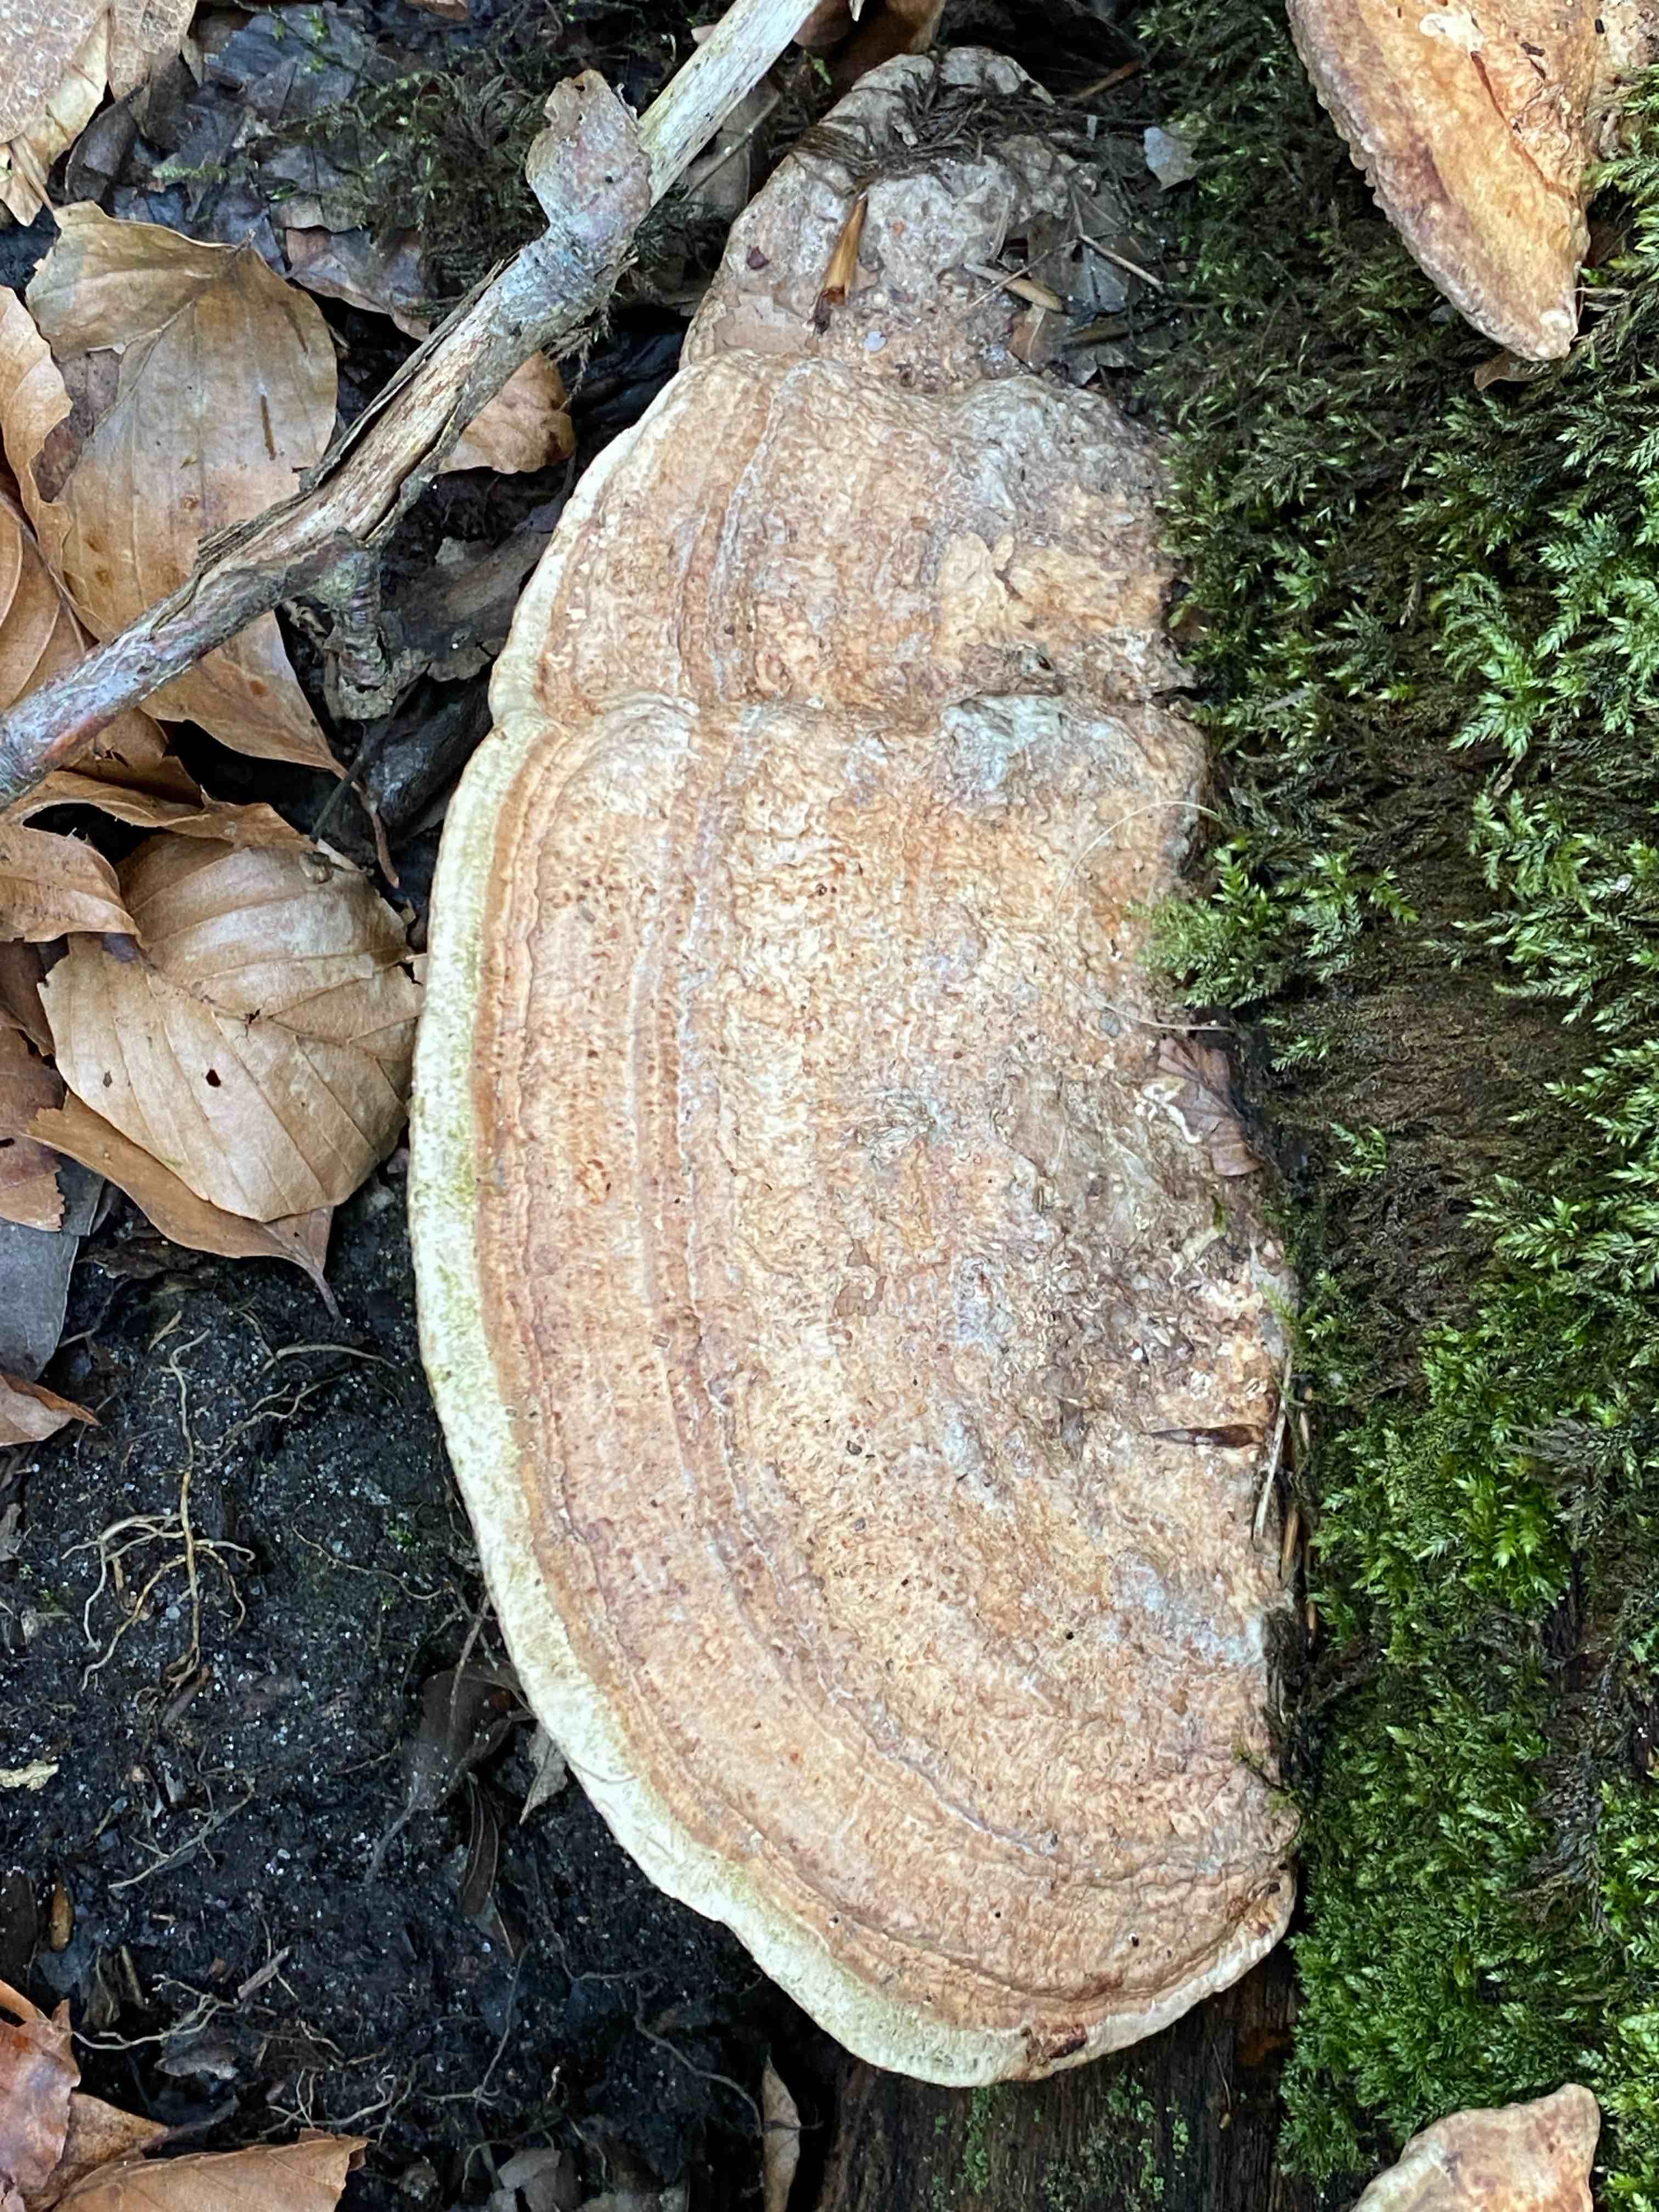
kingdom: Fungi
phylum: Basidiomycota
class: Agaricomycetes
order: Polyporales
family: Fomitopsidaceae
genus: Daedalea
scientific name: Daedalea quercina
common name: ege-labyrintsvamp
